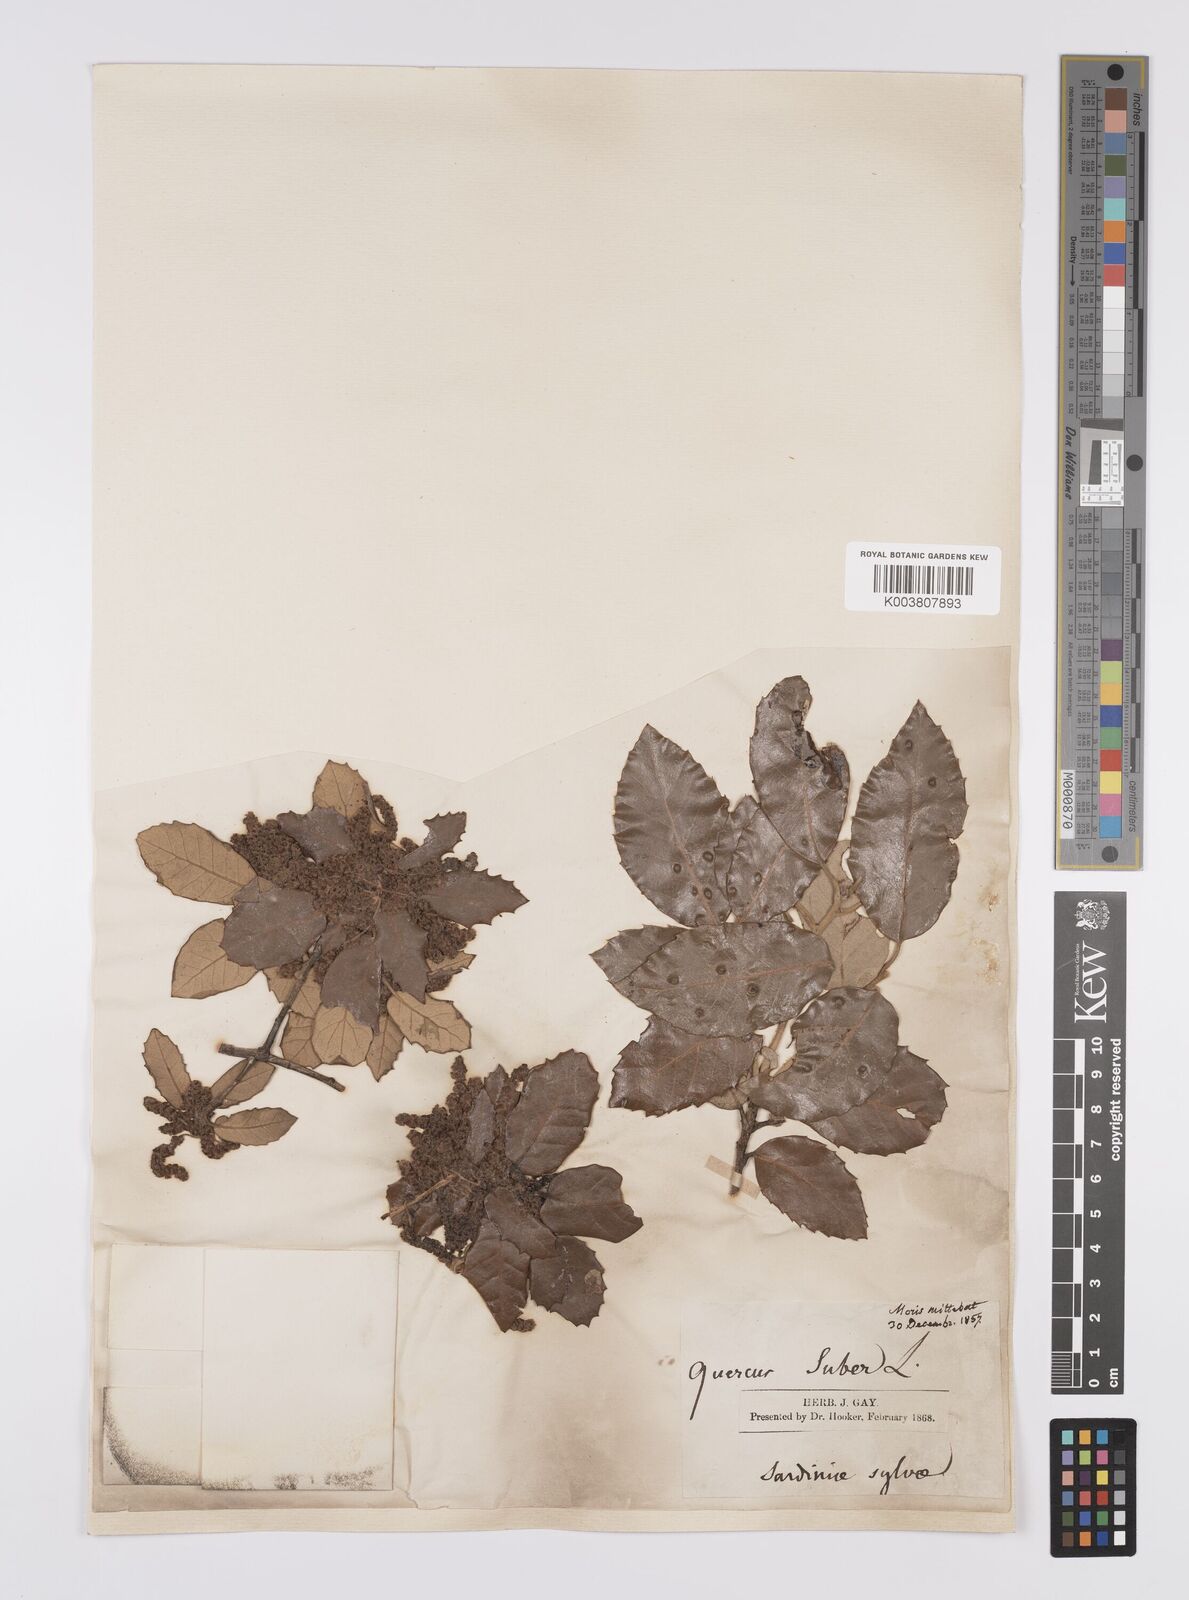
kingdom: Plantae
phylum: Tracheophyta
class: Magnoliopsida
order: Fagales
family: Fagaceae
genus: Quercus
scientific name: Quercus suber
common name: Cork oak
